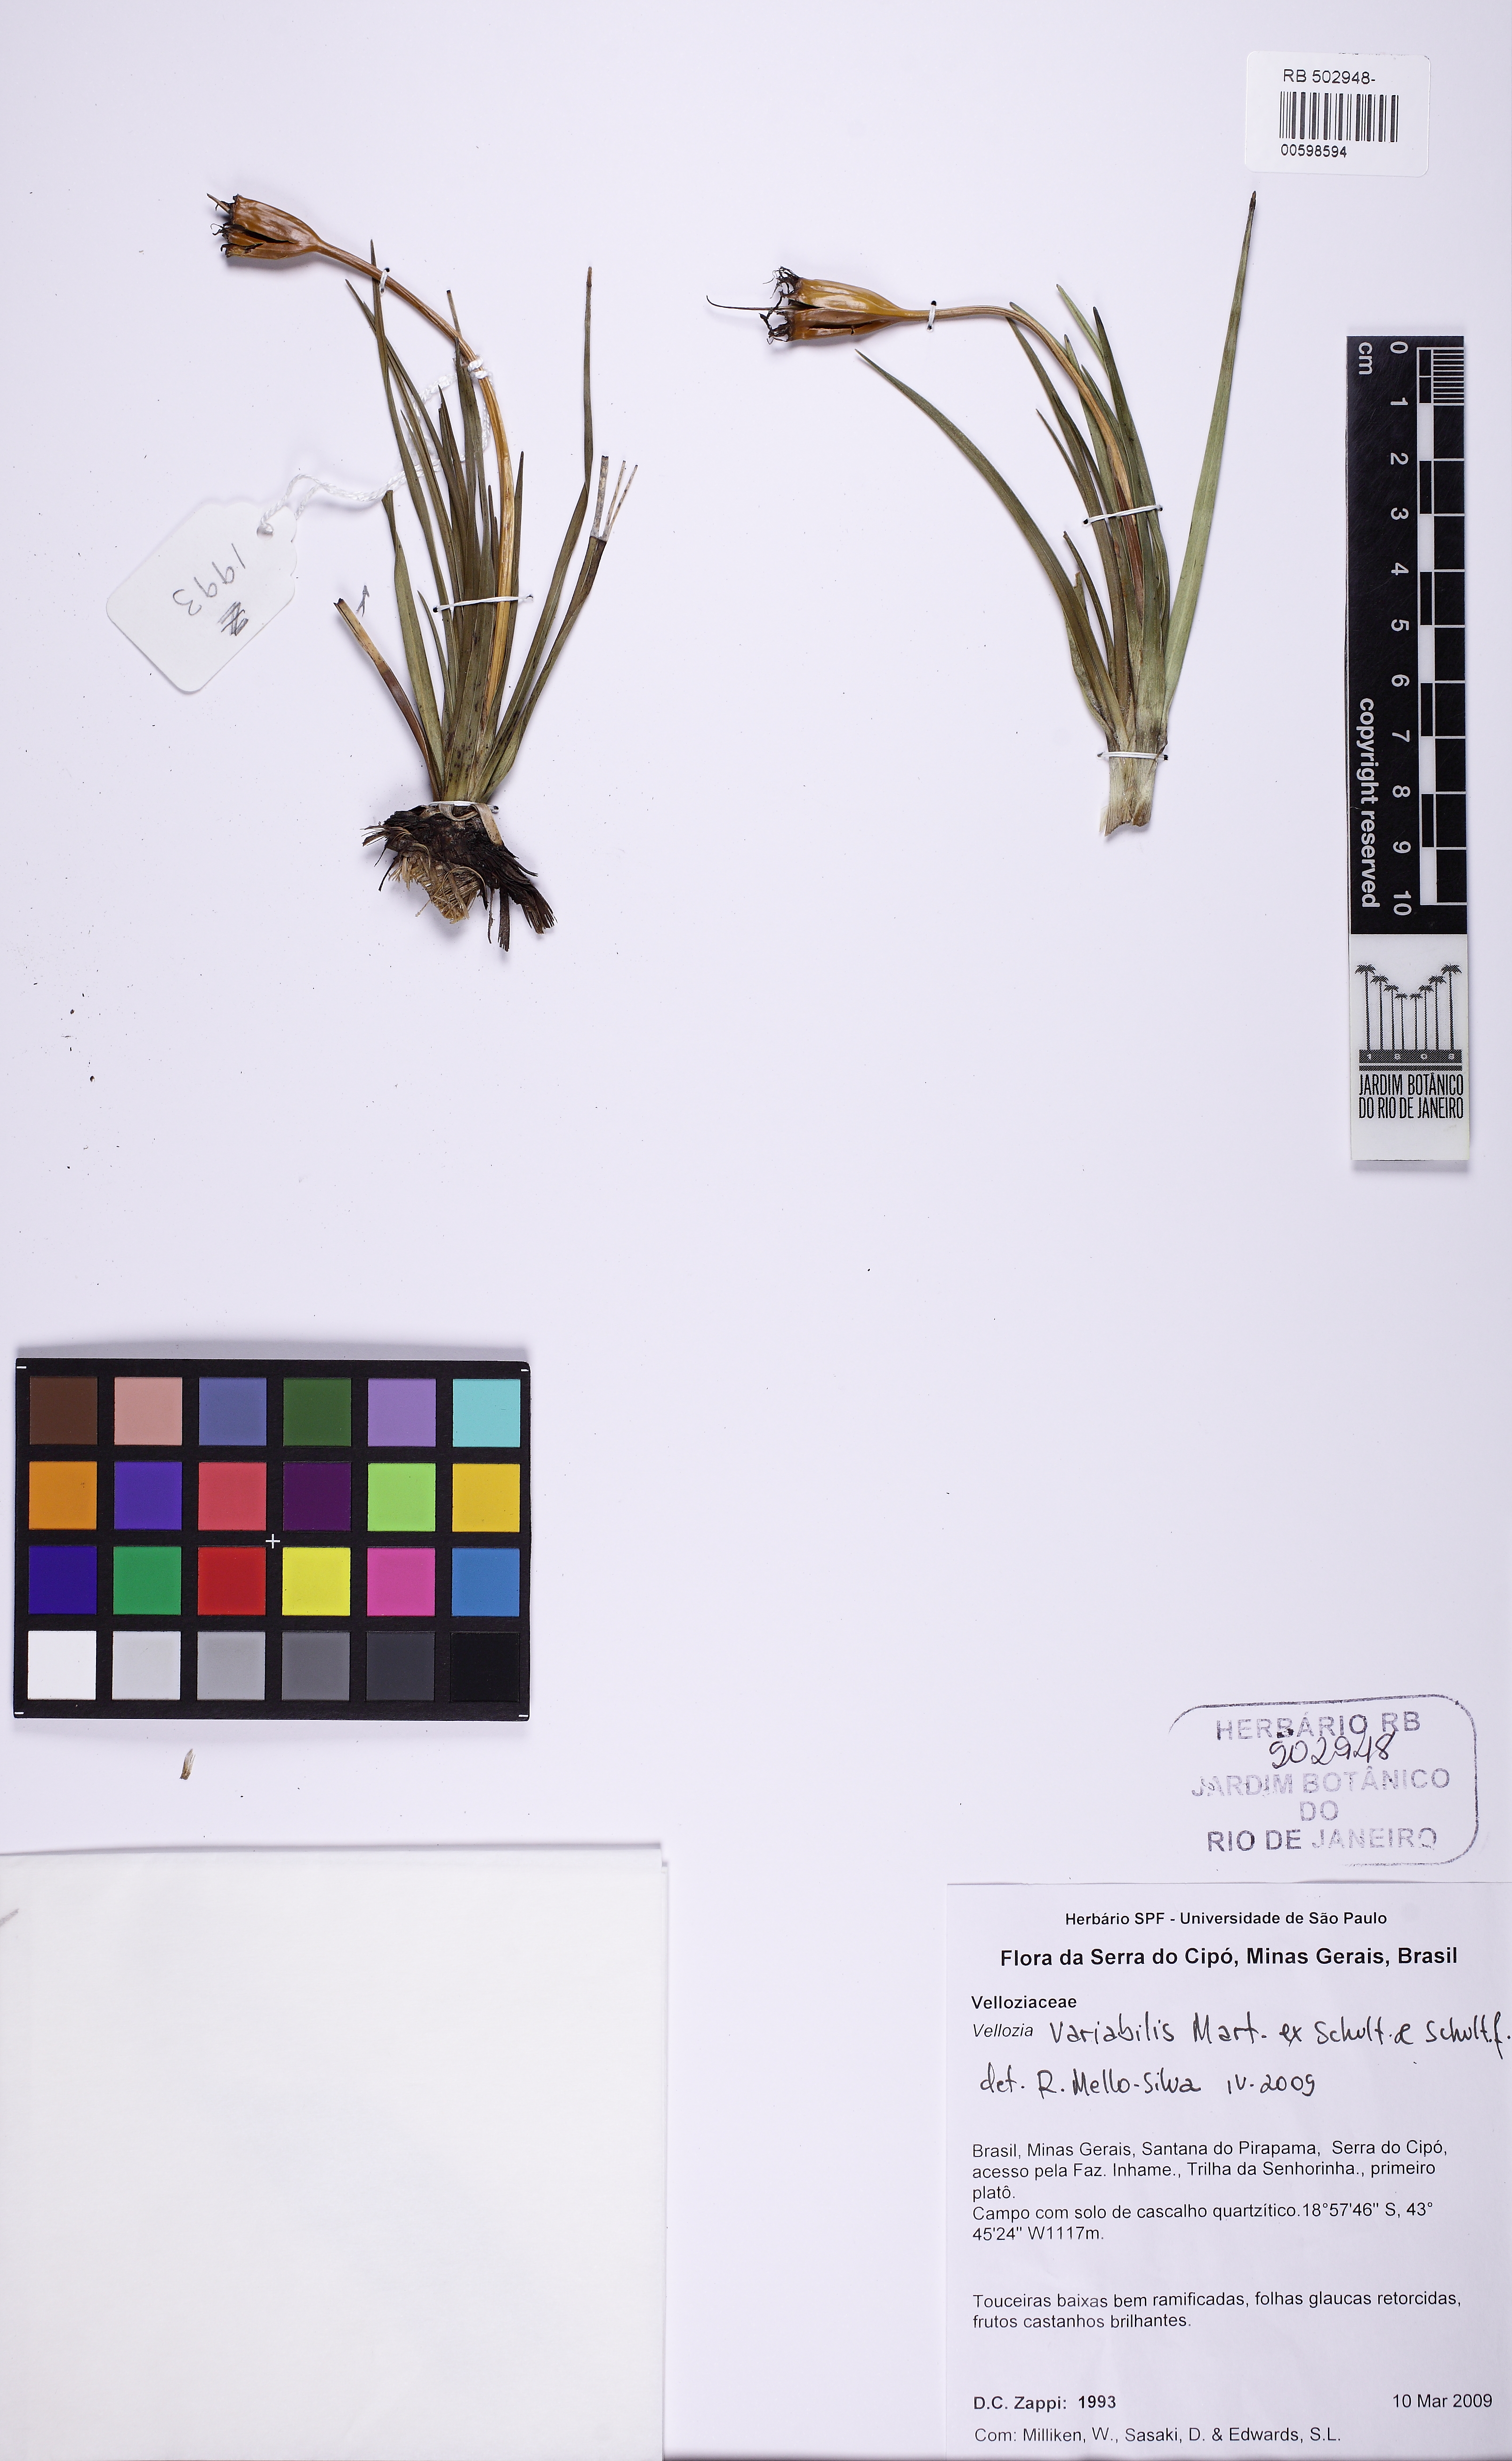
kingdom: Plantae
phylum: Tracheophyta
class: Liliopsida
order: Pandanales
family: Velloziaceae
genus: Vellozia
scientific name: Vellozia variabilis
